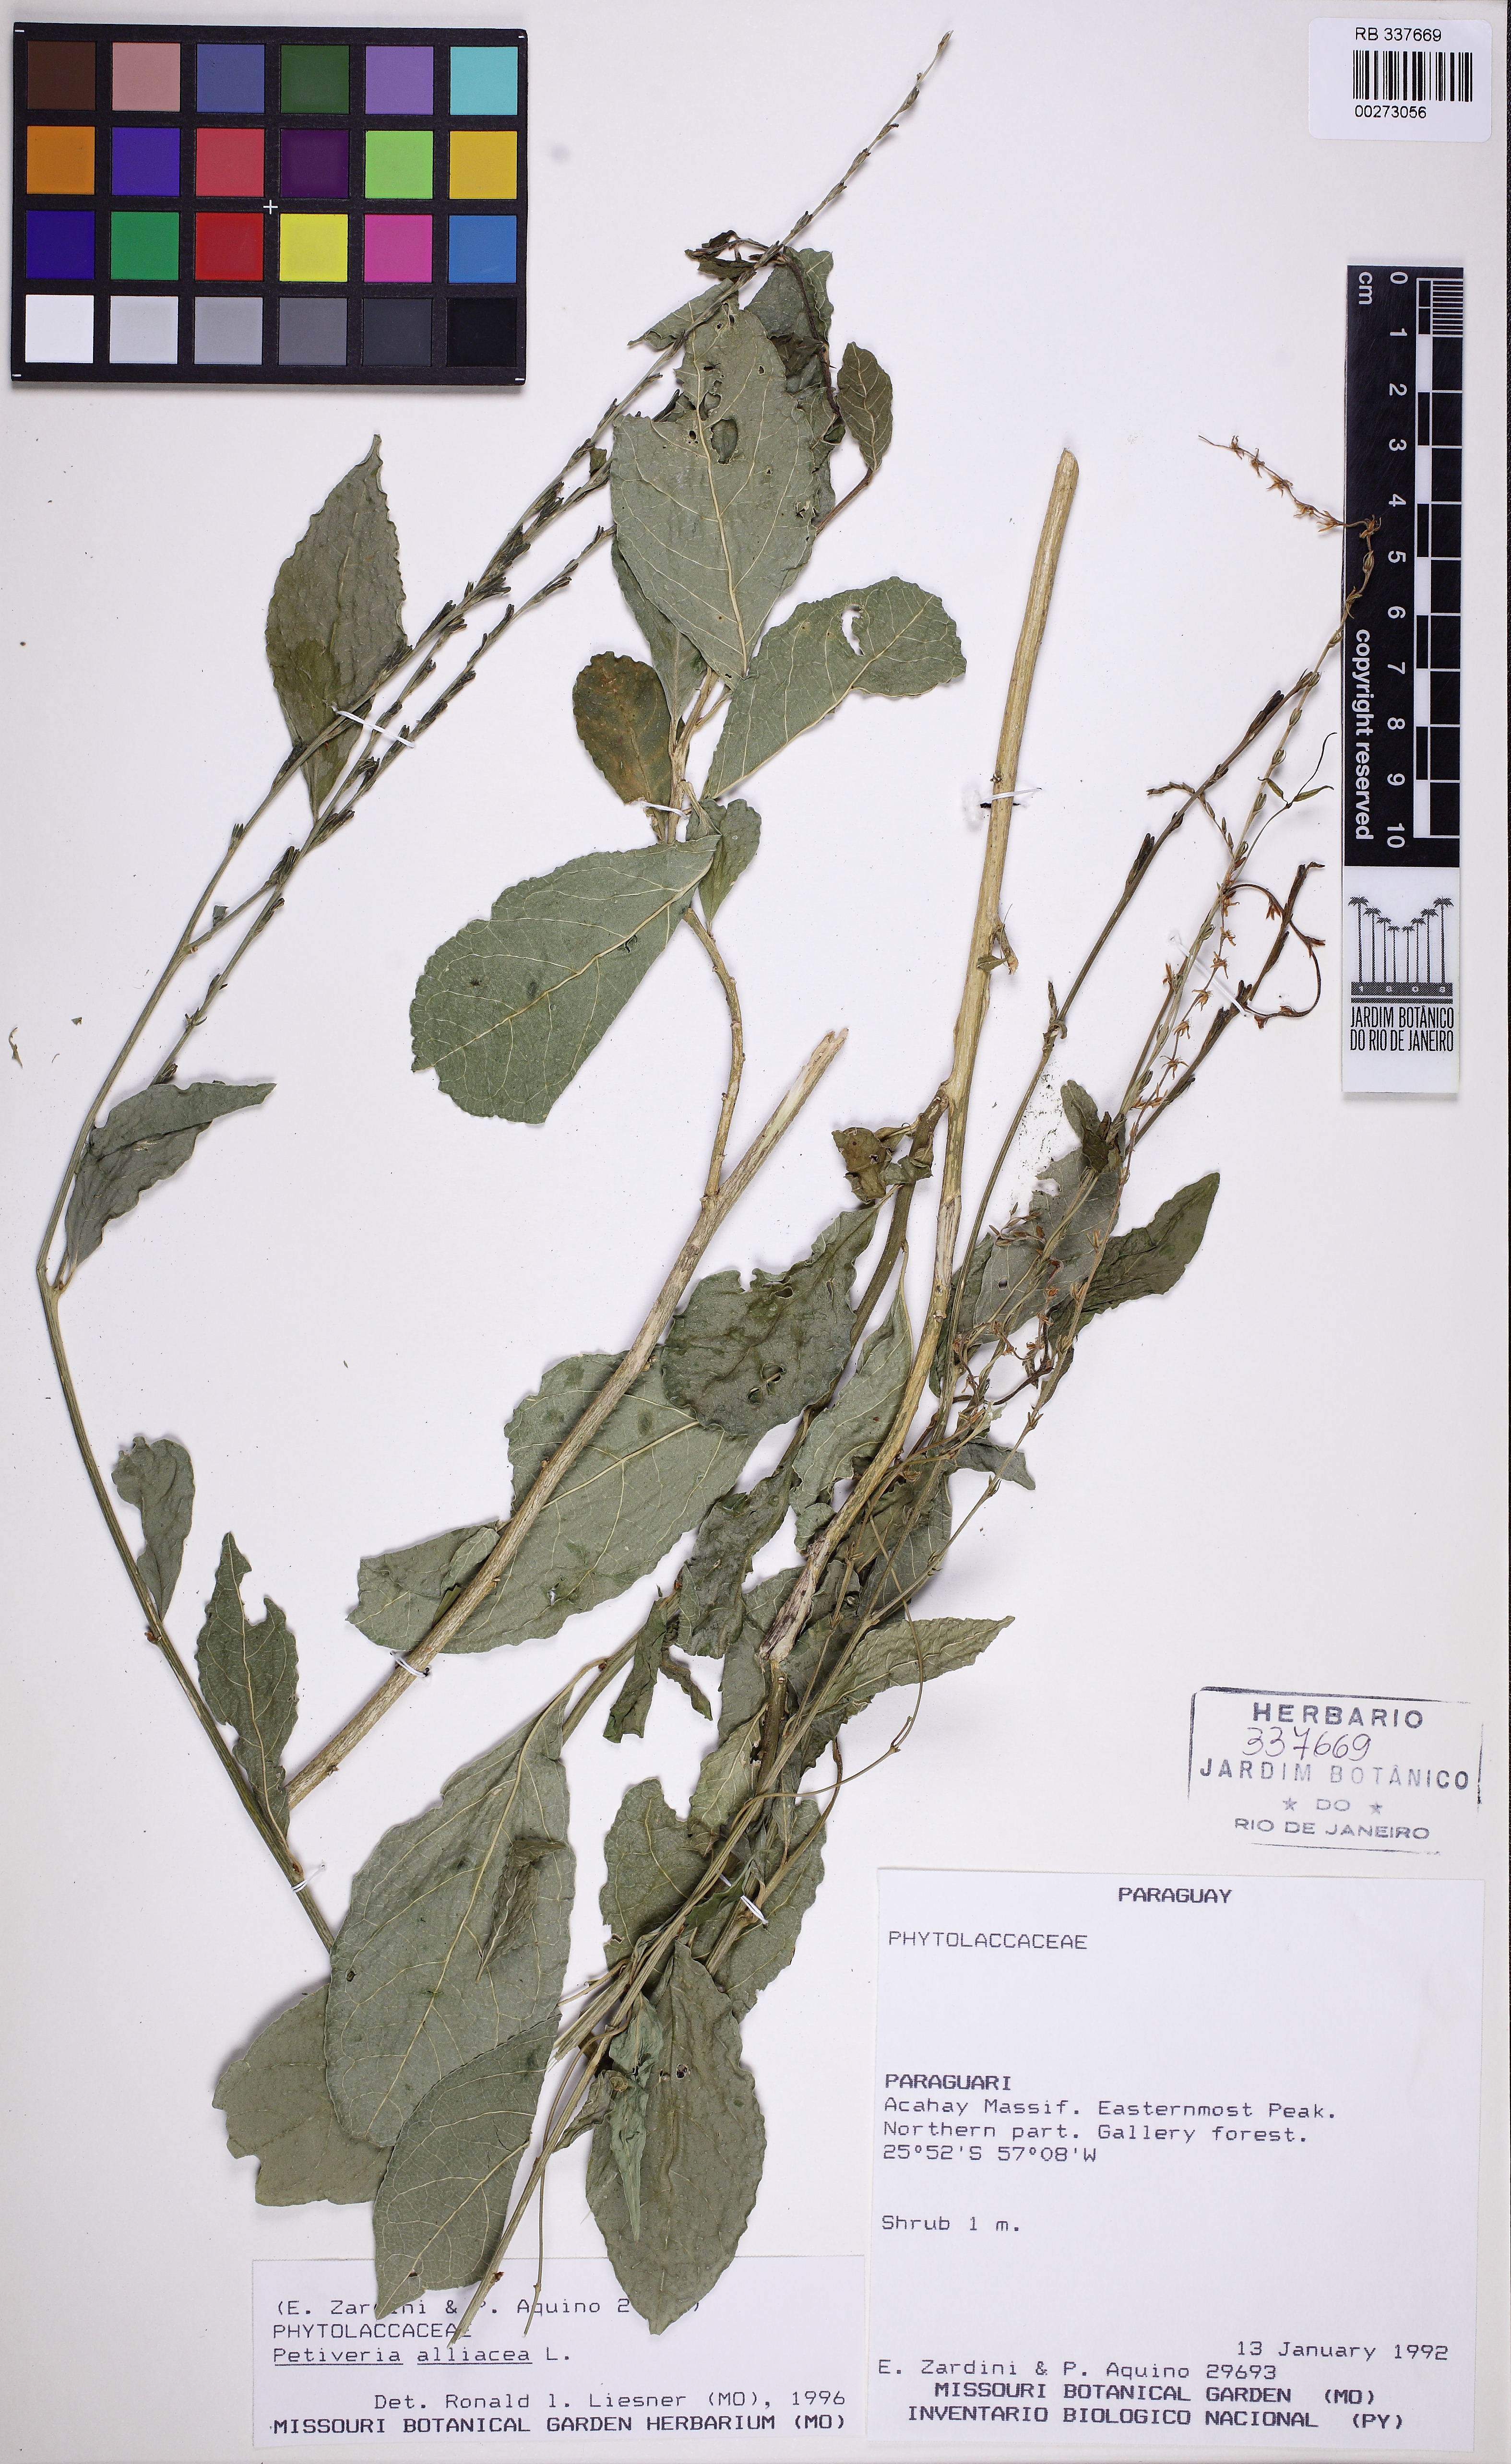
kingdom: Plantae
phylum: Tracheophyta
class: Magnoliopsida
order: Caryophyllales
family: Phytolaccaceae
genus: Petiveria
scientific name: Petiveria alliacea
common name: Garlicweed
